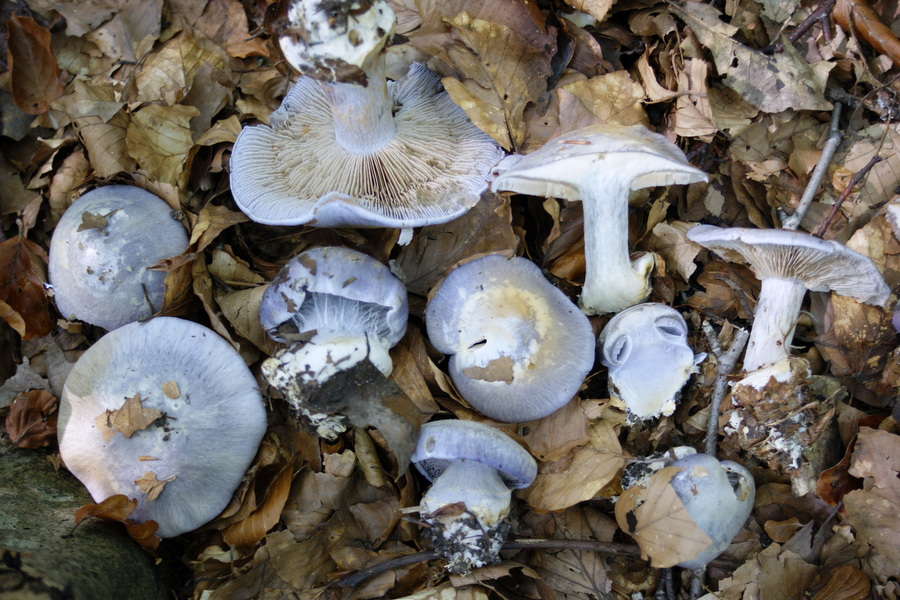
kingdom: Fungi
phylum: Basidiomycota
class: Agaricomycetes
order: Agaricales
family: Cortinariaceae
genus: Cortinarius
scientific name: Cortinarius caerulescens
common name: blåkødet slørhat
